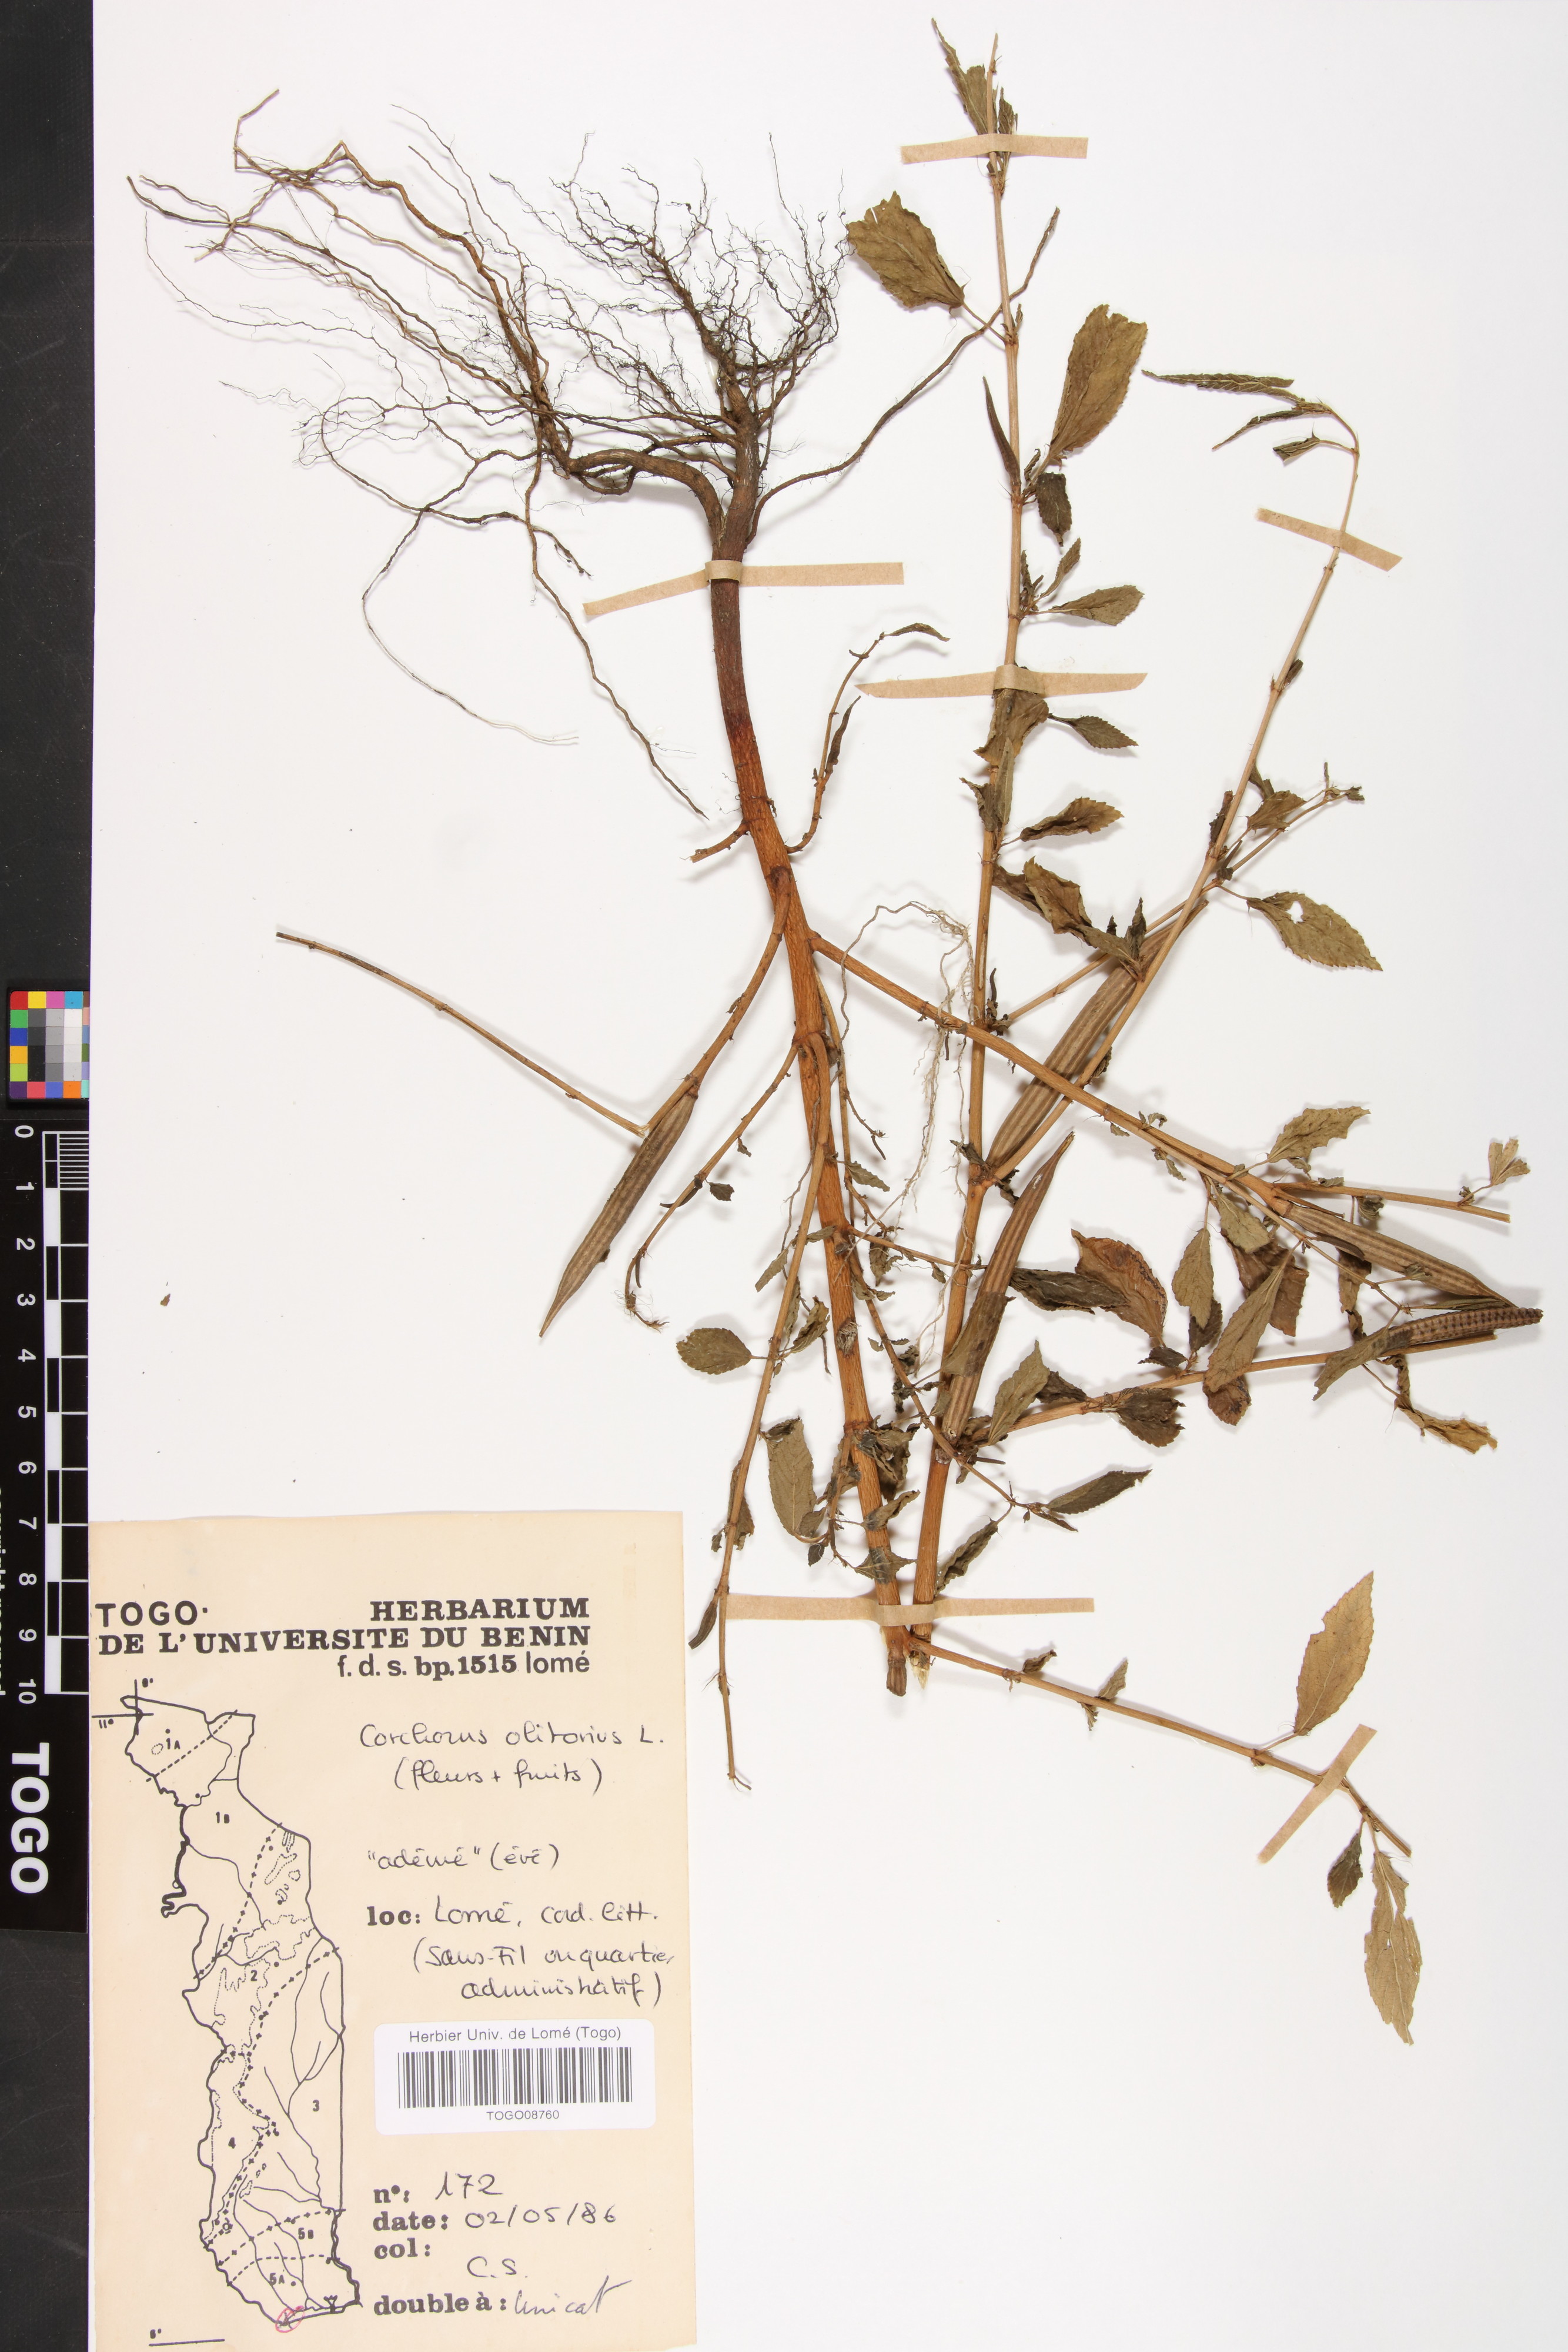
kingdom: Plantae
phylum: Tracheophyta
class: Magnoliopsida
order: Malvales
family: Malvaceae
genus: Corchorus
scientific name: Corchorus olitorius
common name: Tossa jute
